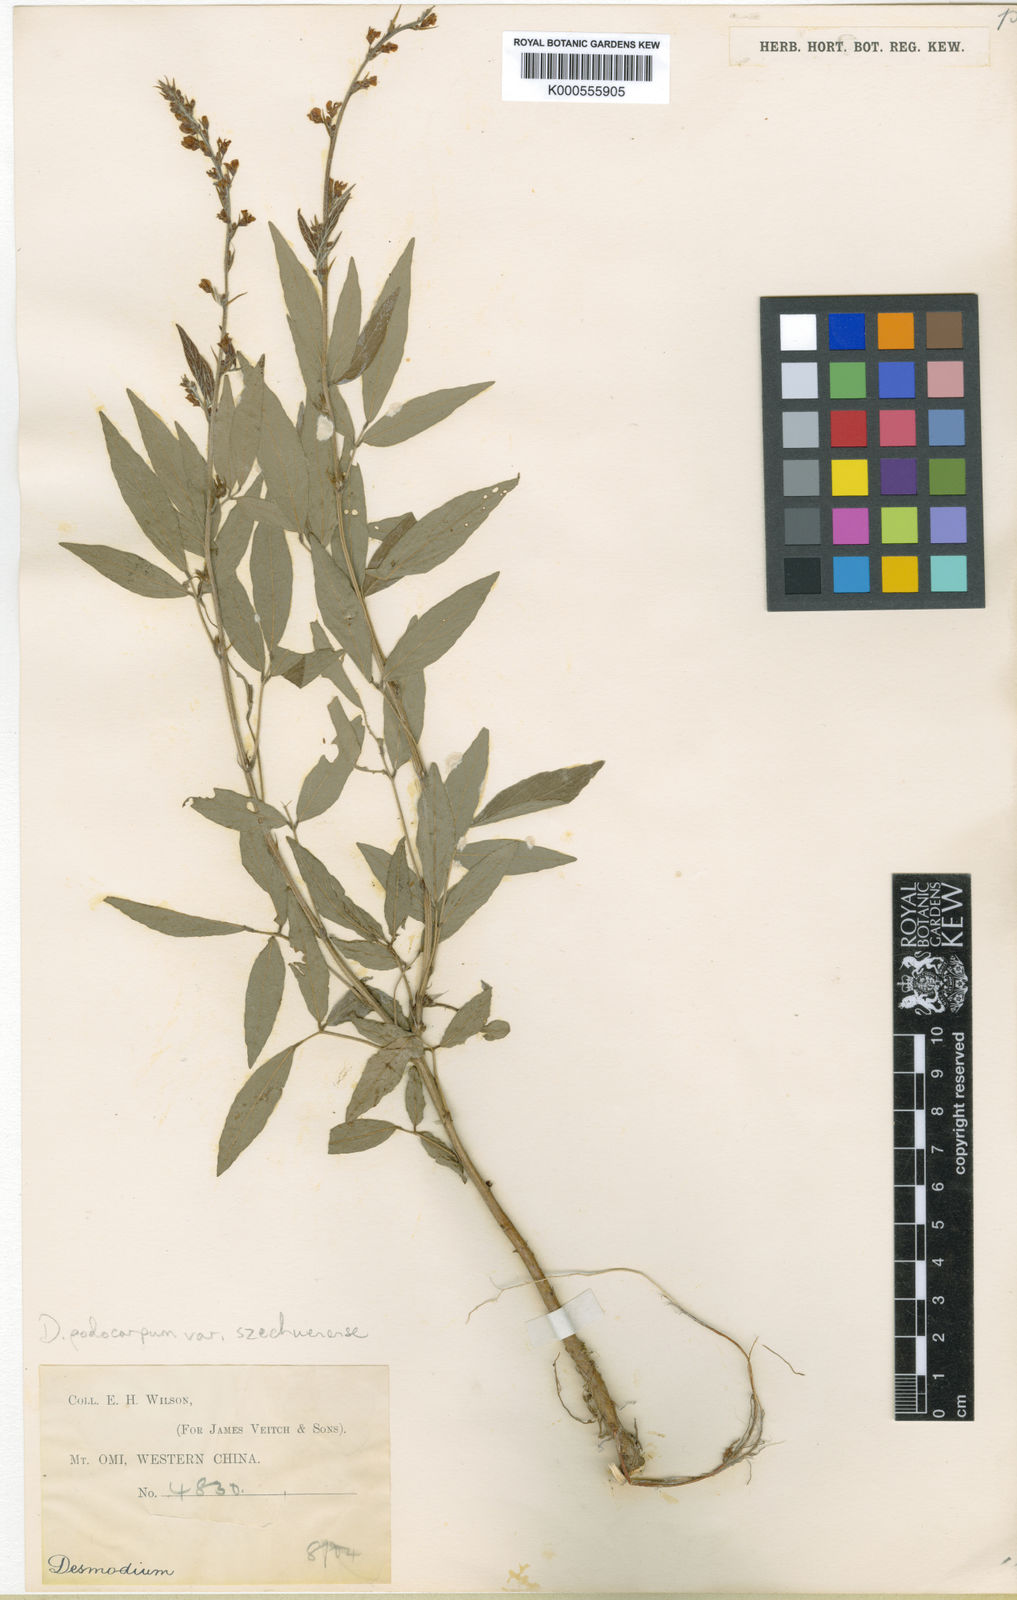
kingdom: Plantae
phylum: Tracheophyta
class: Magnoliopsida
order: Fabales
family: Fabaceae
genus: Hylodesmum
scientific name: Hylodesmum podocarpum
